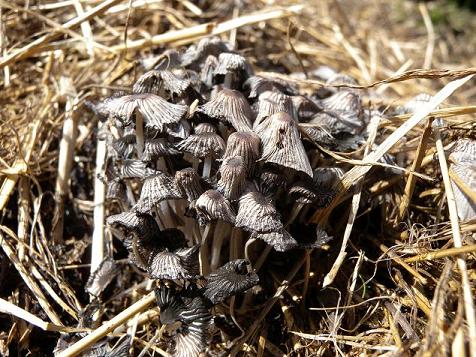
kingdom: Fungi
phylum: Basidiomycota
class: Agaricomycetes
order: Agaricales
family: Psathyrellaceae
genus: Tulosesus
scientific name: Tulosesus marculentus
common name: hexagonsporet blækhat
